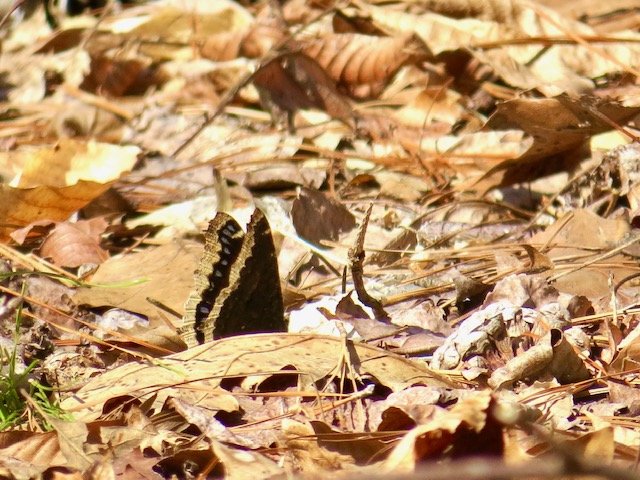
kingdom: Animalia
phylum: Arthropoda
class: Insecta
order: Lepidoptera
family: Nymphalidae
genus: Nymphalis
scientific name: Nymphalis antiopa
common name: Mourning Cloak
